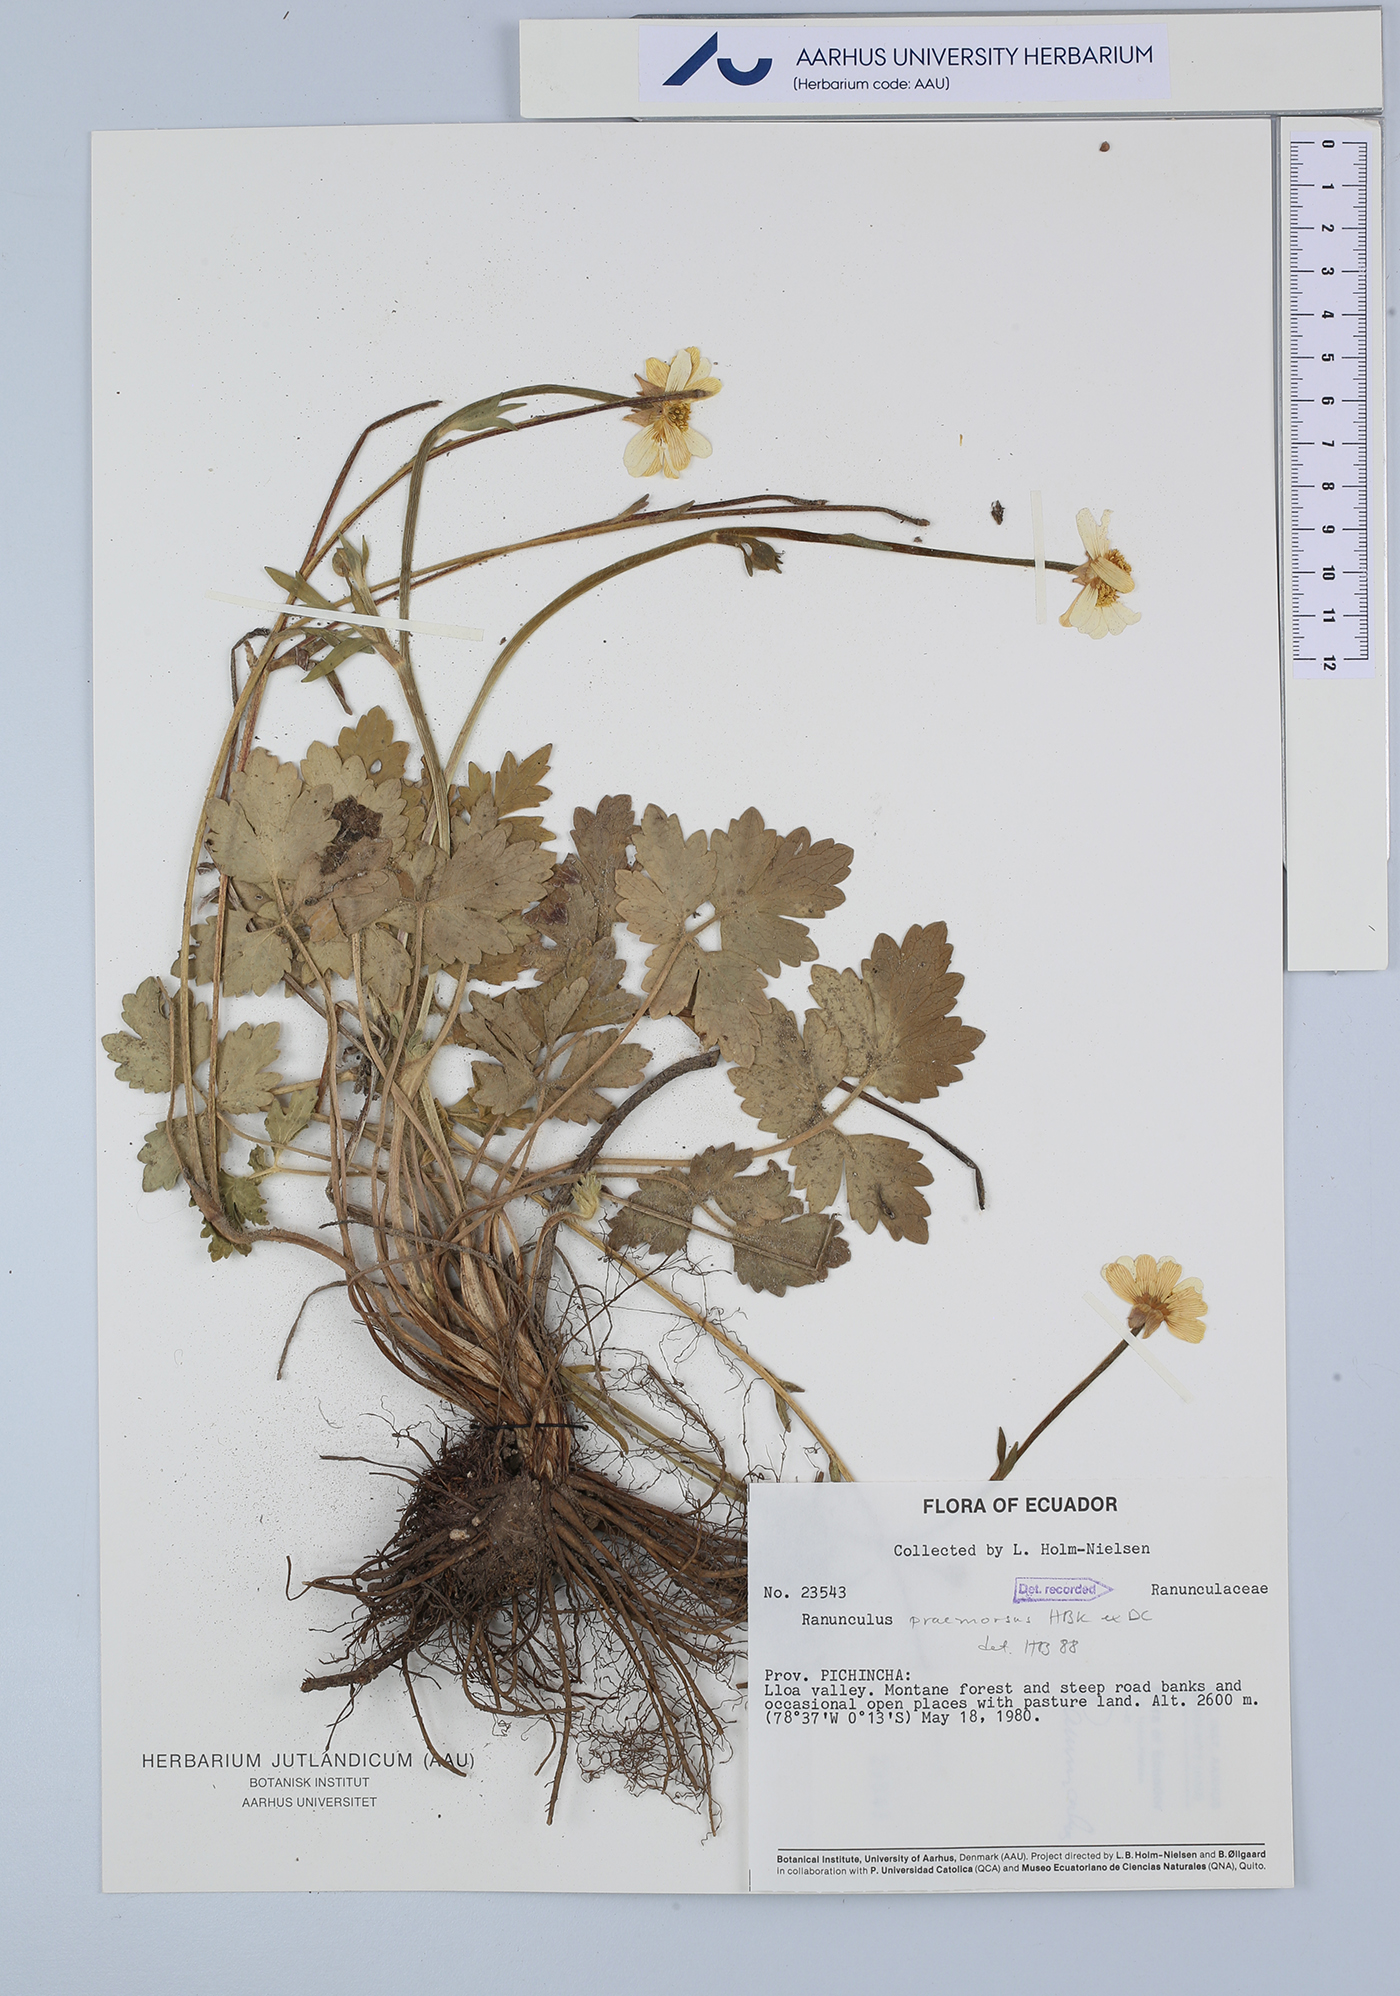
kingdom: Plantae
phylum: Tracheophyta
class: Magnoliopsida
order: Ranunculales
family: Ranunculaceae
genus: Ranunculus
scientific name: Ranunculus praemorsus
